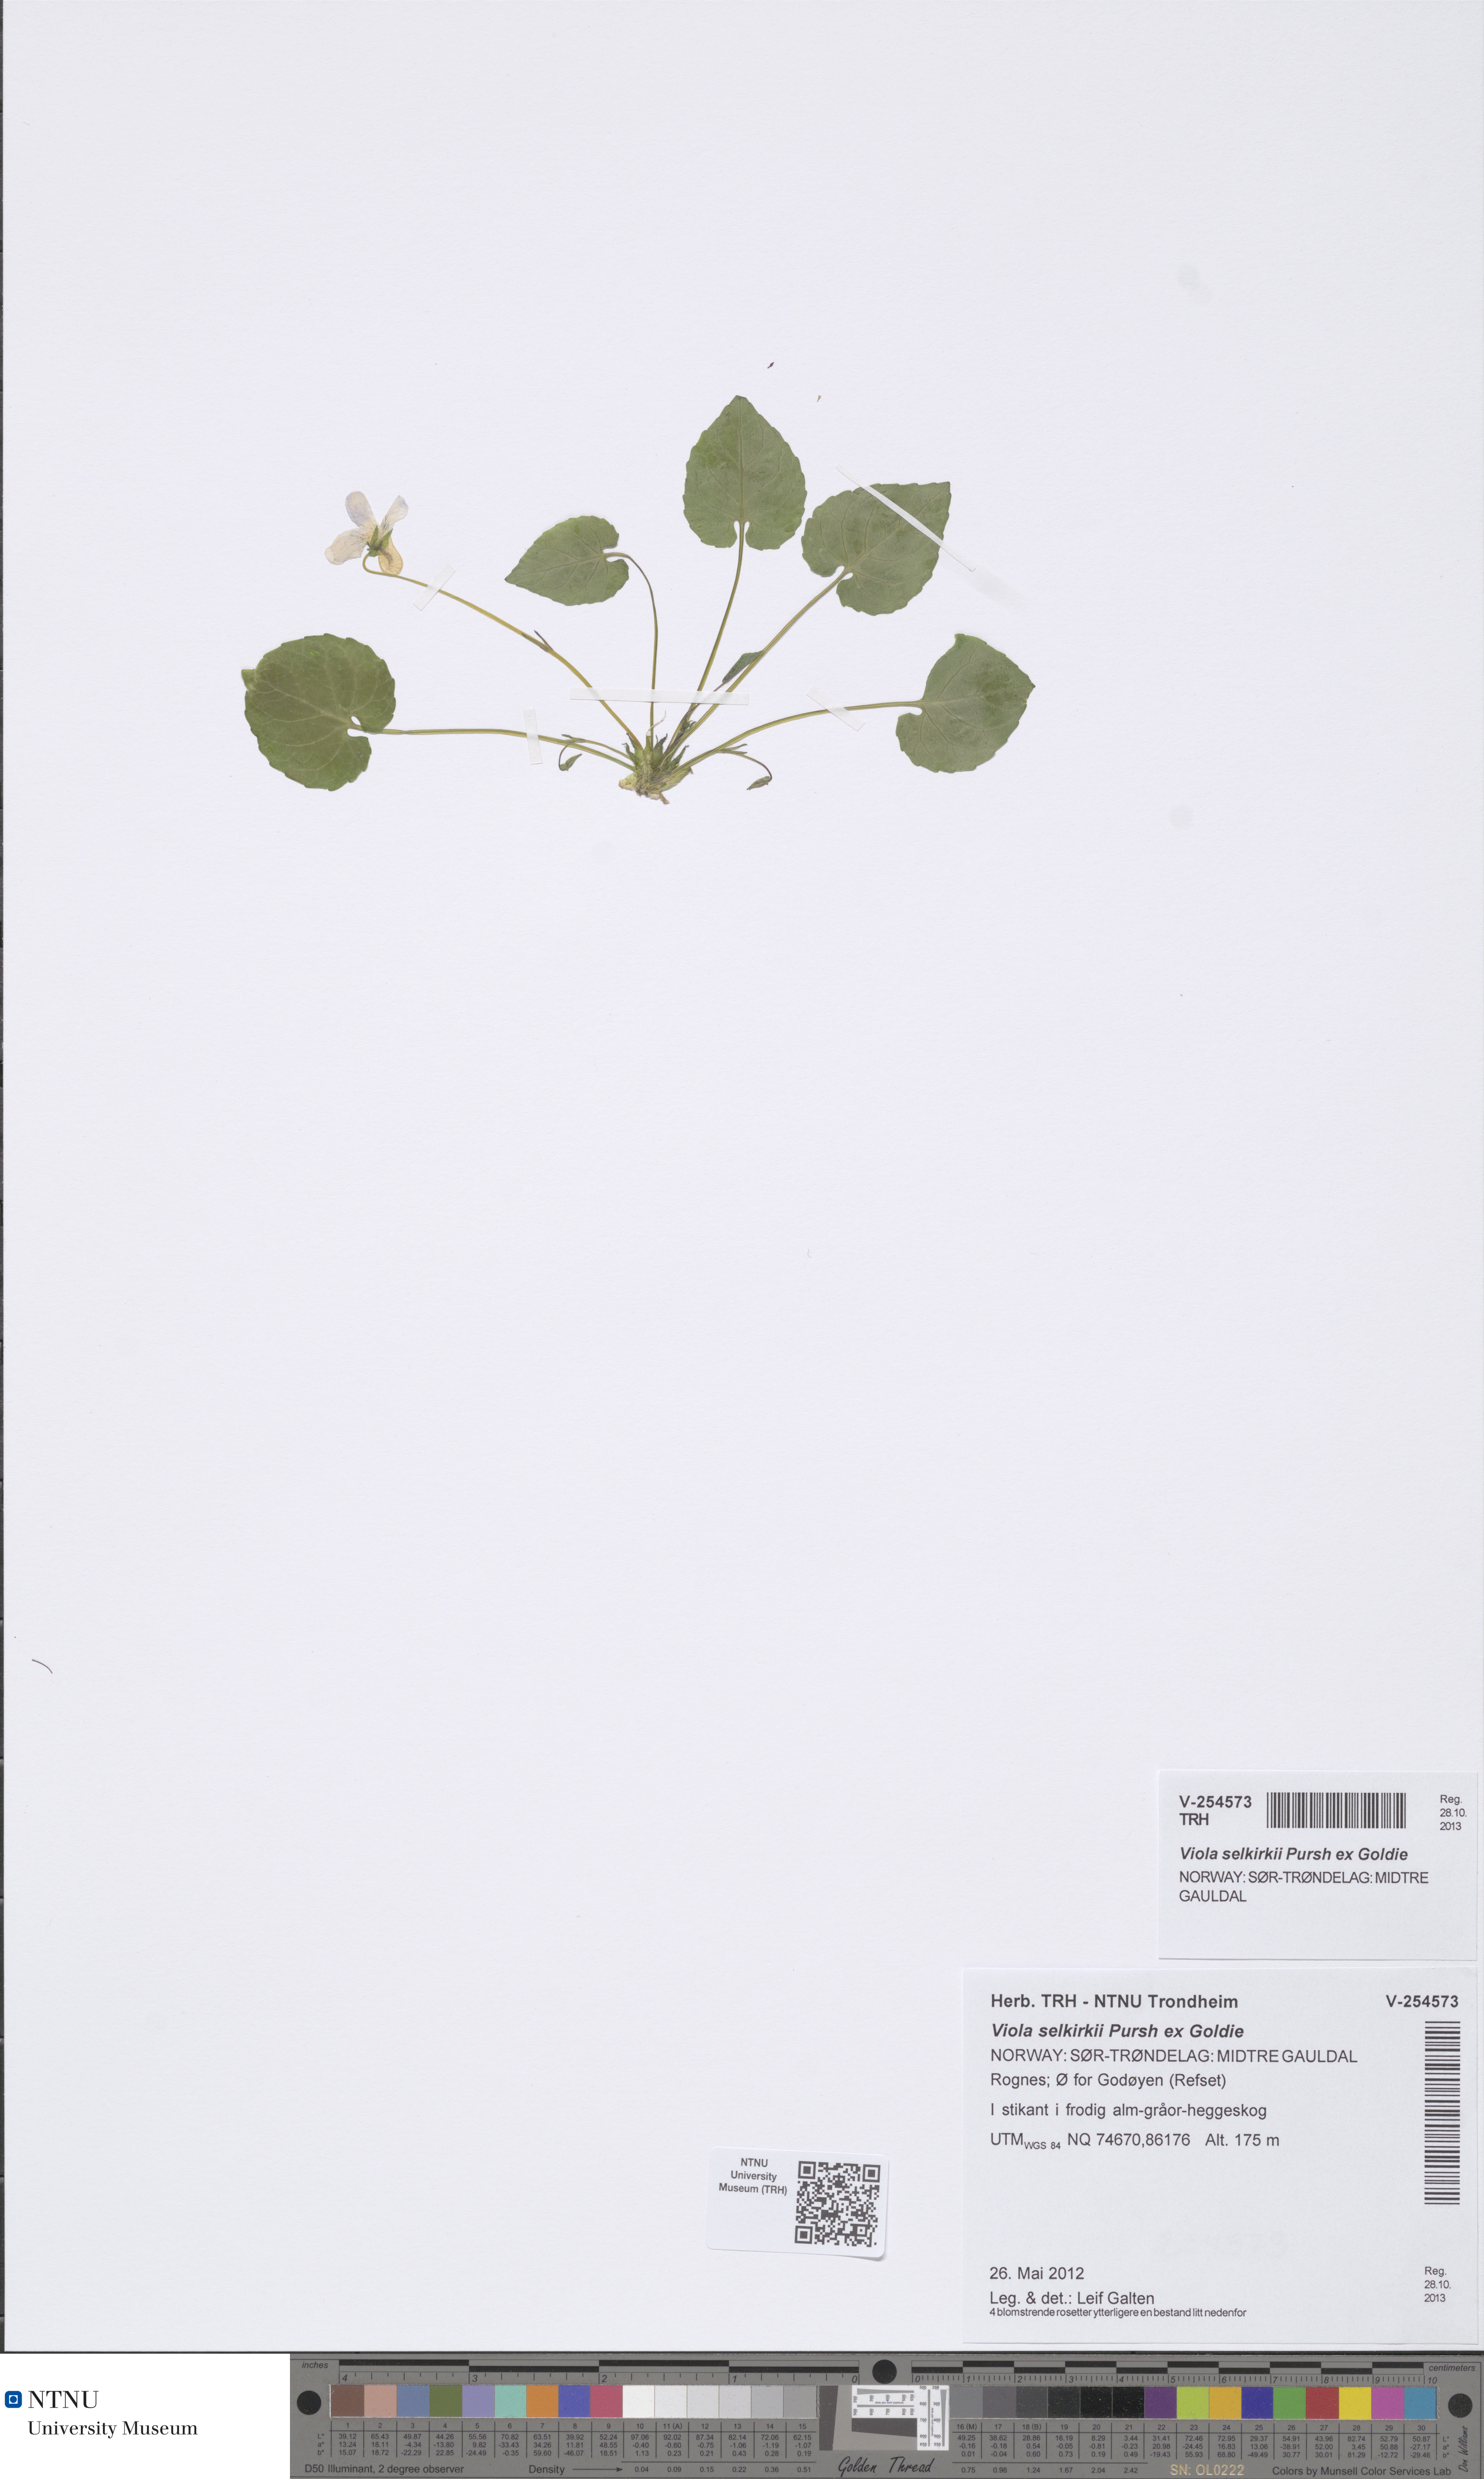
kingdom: Plantae
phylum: Tracheophyta
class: Magnoliopsida
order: Malpighiales
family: Violaceae
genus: Viola
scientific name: Viola selkirkii
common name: Selkirk's violet
